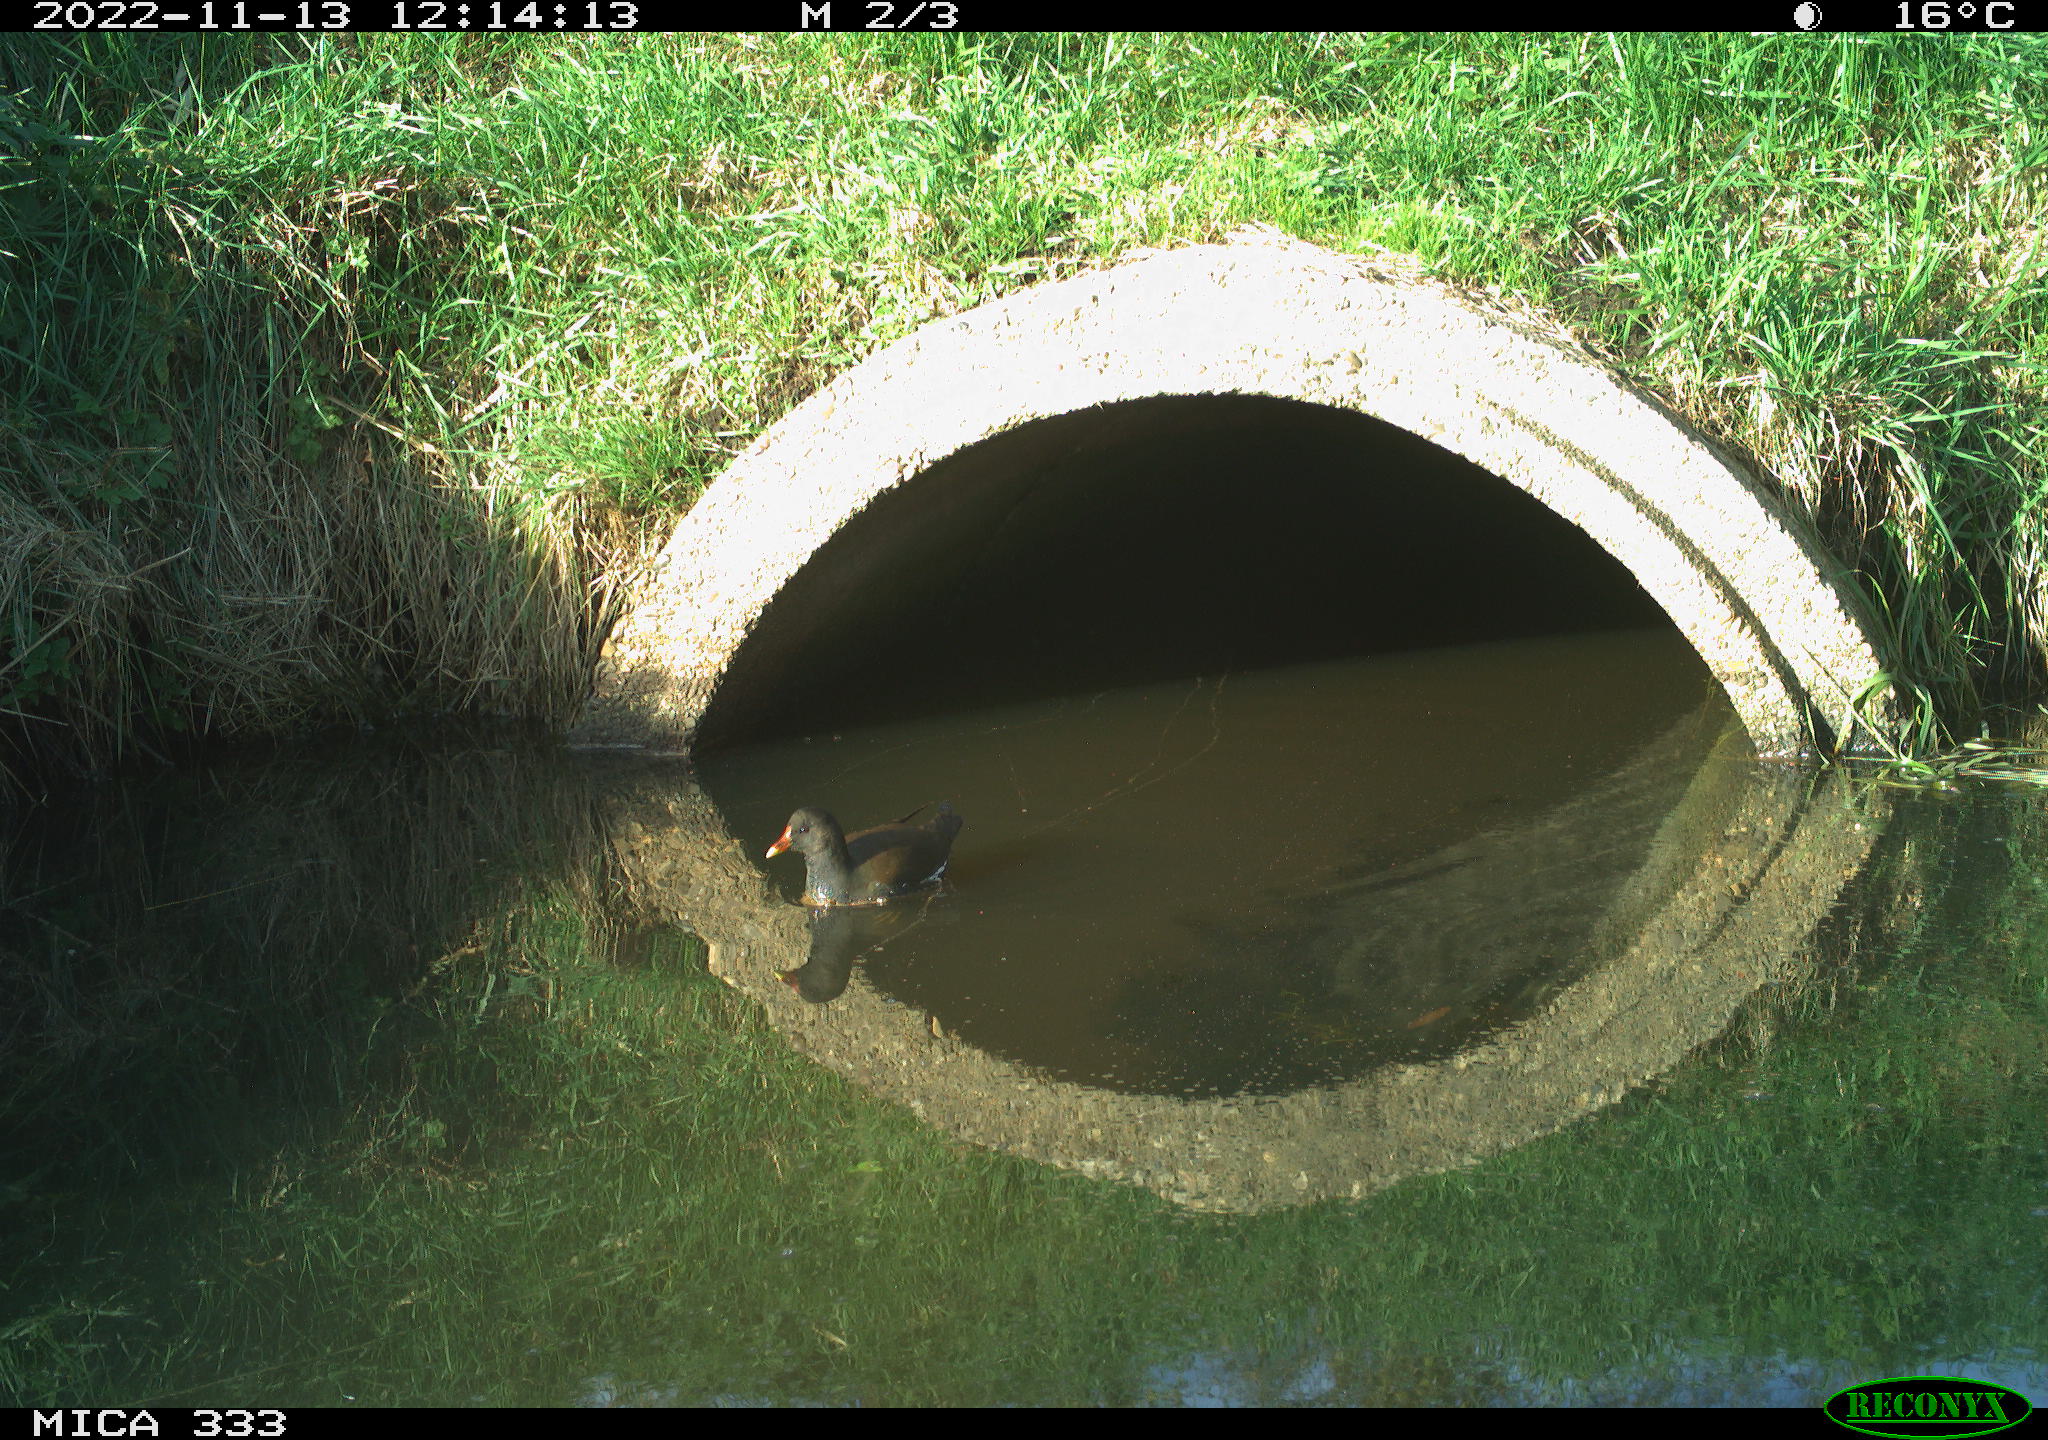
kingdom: Animalia
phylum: Chordata
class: Aves
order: Gruiformes
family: Rallidae
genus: Gallinula
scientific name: Gallinula chloropus
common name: Common moorhen
